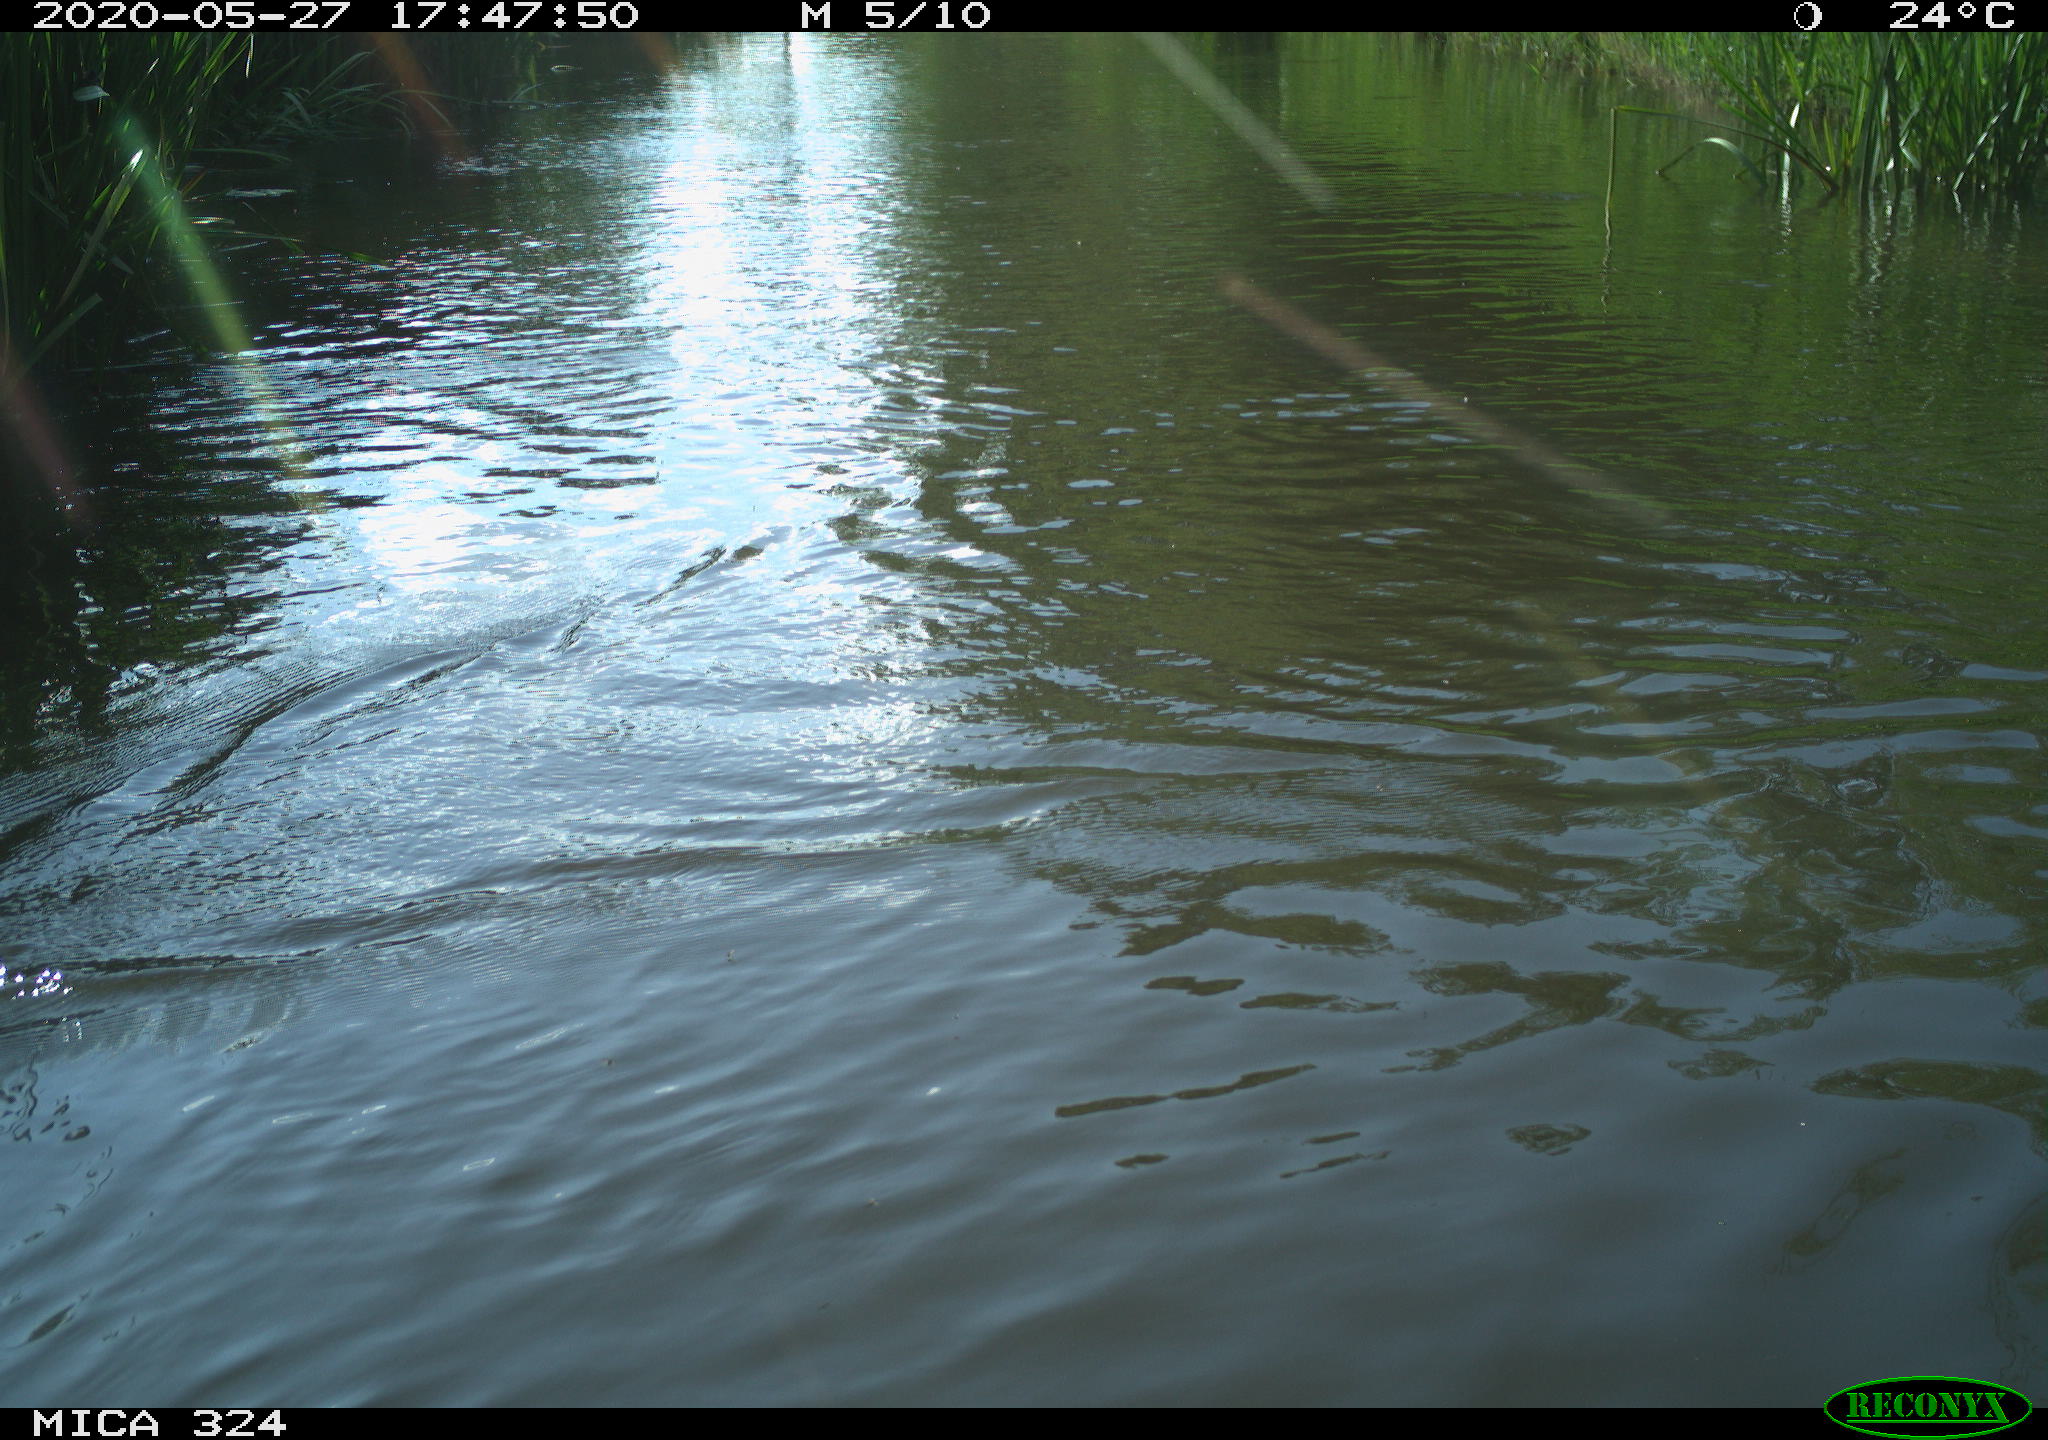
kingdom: Animalia
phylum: Chordata
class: Aves
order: Gruiformes
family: Rallidae
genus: Fulica
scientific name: Fulica atra
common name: Eurasian coot
